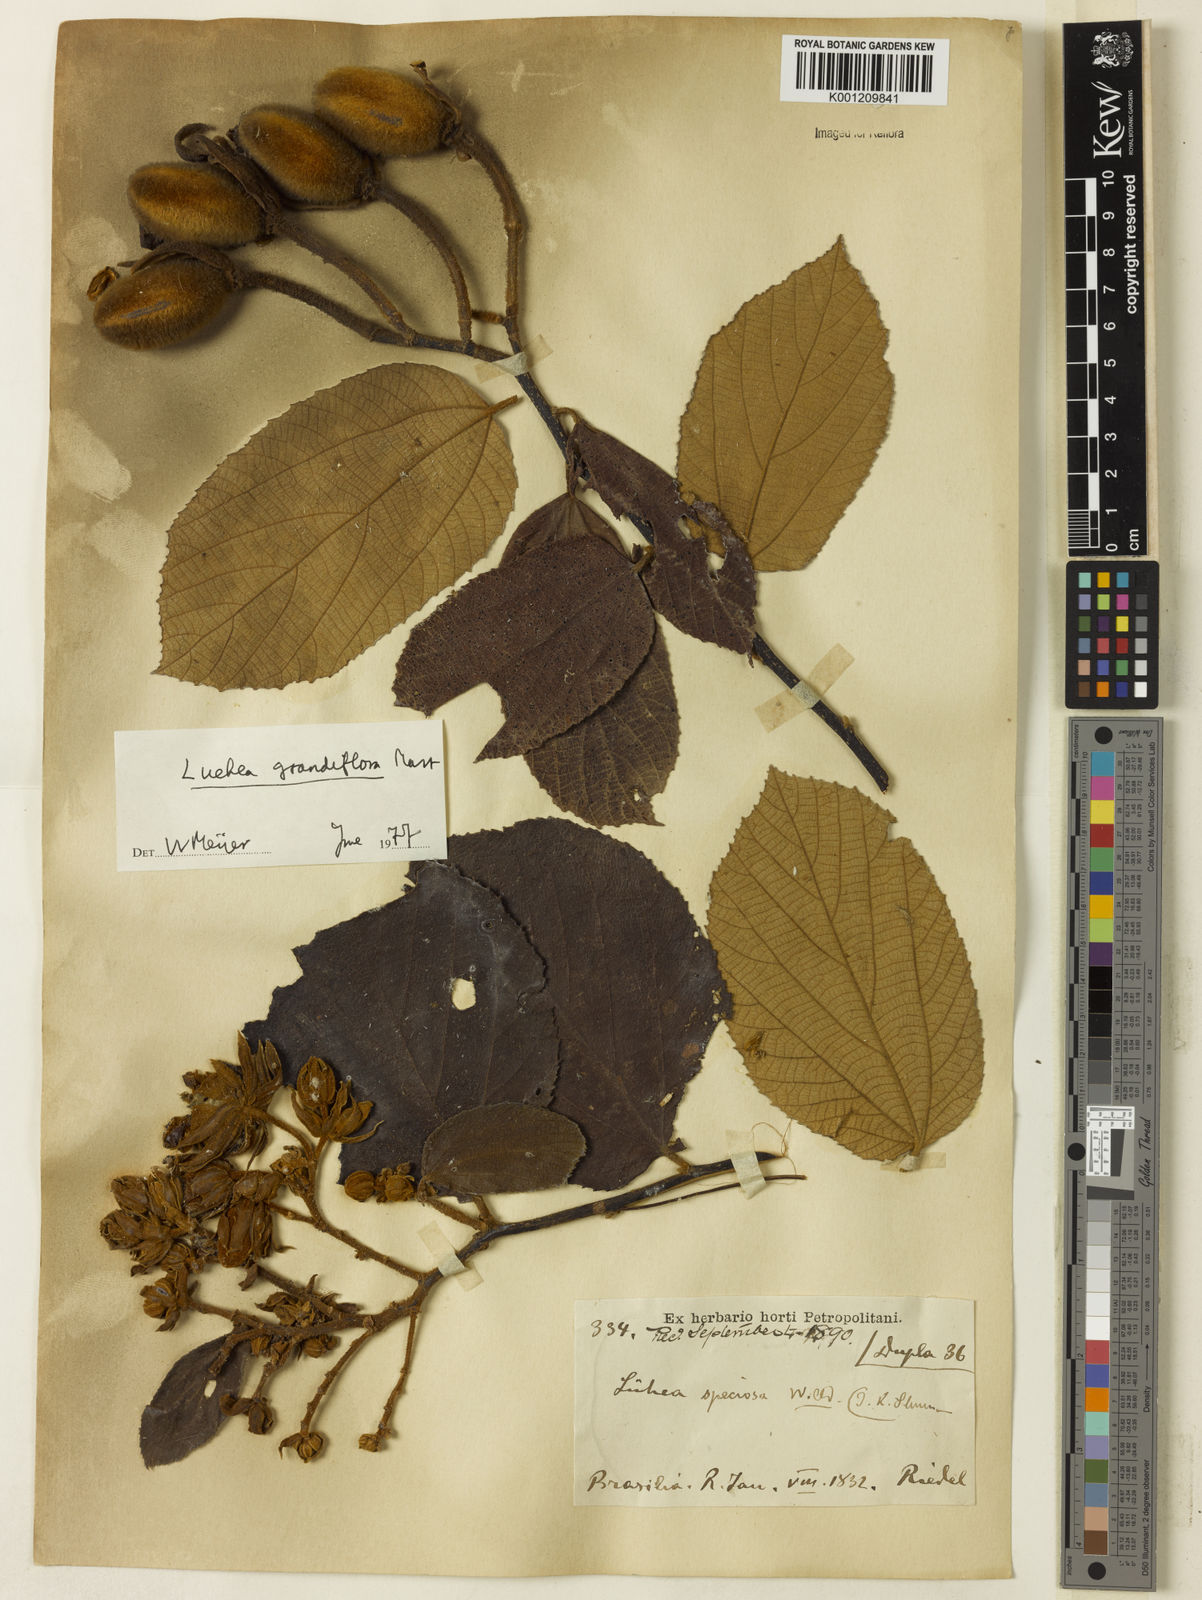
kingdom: Plantae
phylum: Tracheophyta
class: Magnoliopsida
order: Malvales
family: Malvaceae
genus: Luehea
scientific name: Luehea grandiflora
